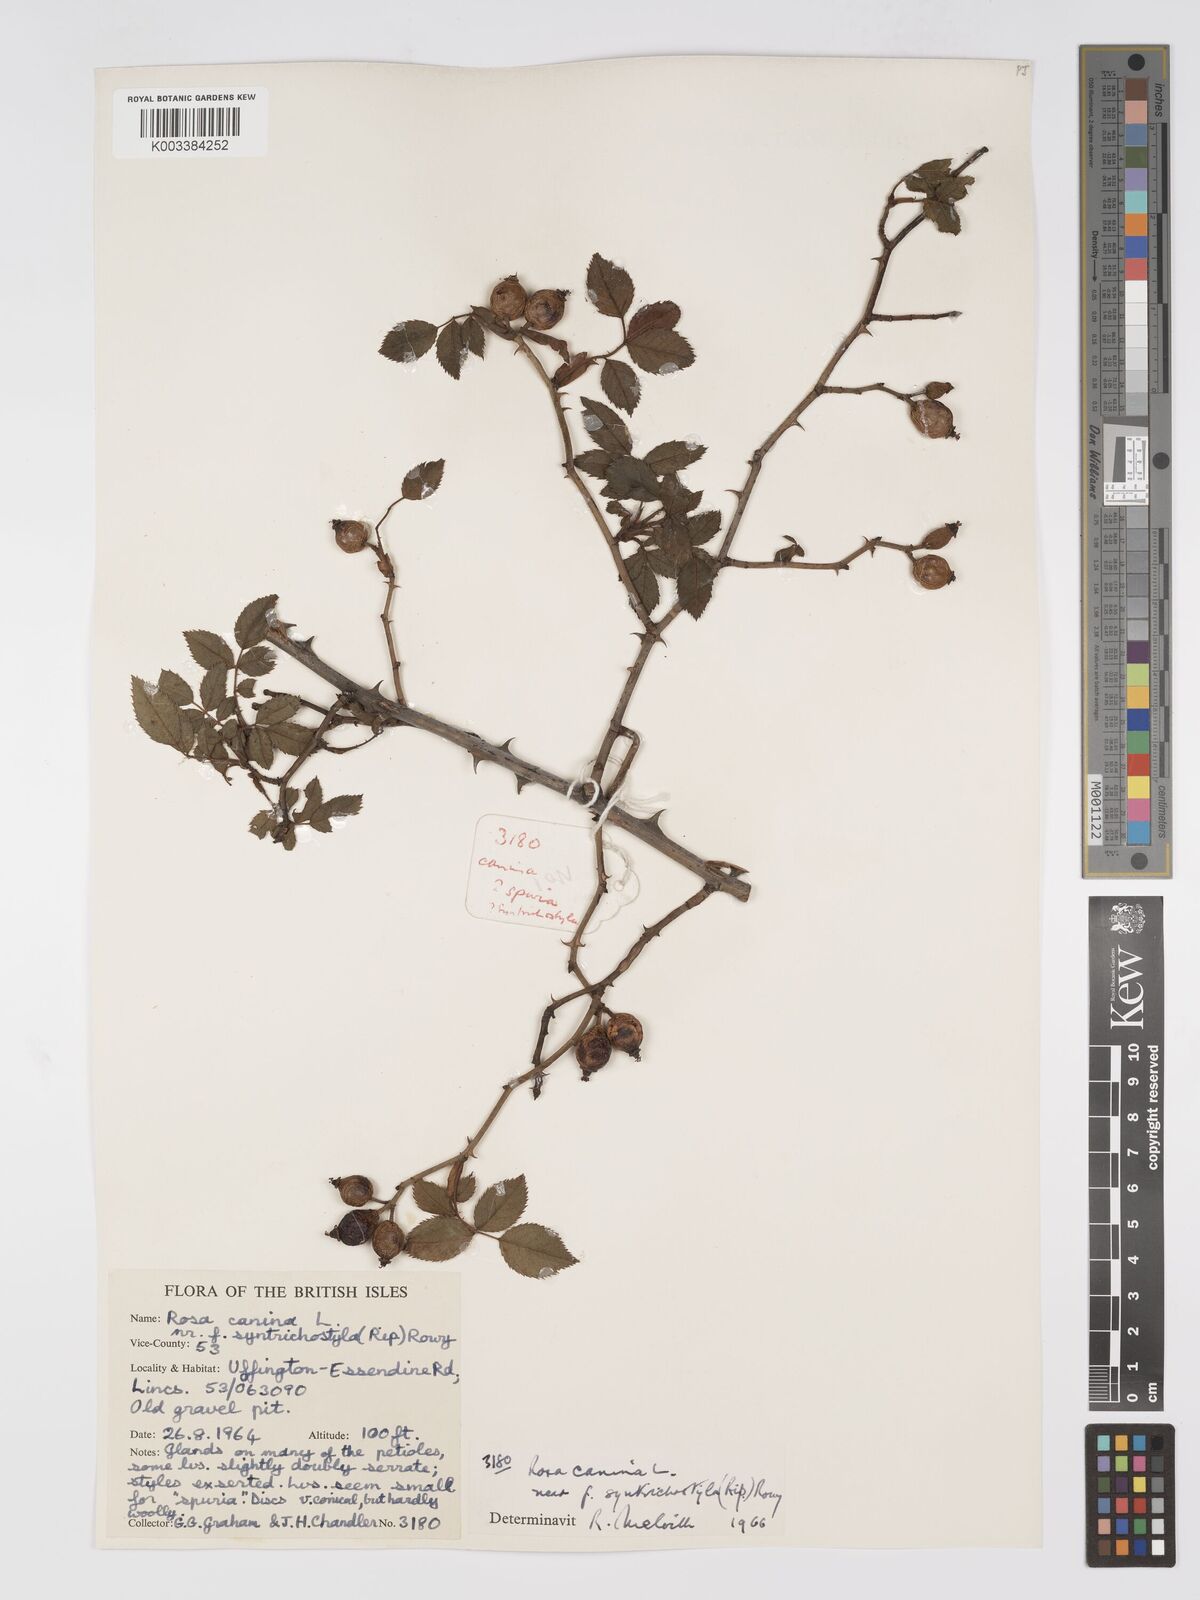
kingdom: Plantae
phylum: Tracheophyta
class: Magnoliopsida
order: Rosales
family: Rosaceae
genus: Rosa
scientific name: Rosa canina
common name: Dog rose
